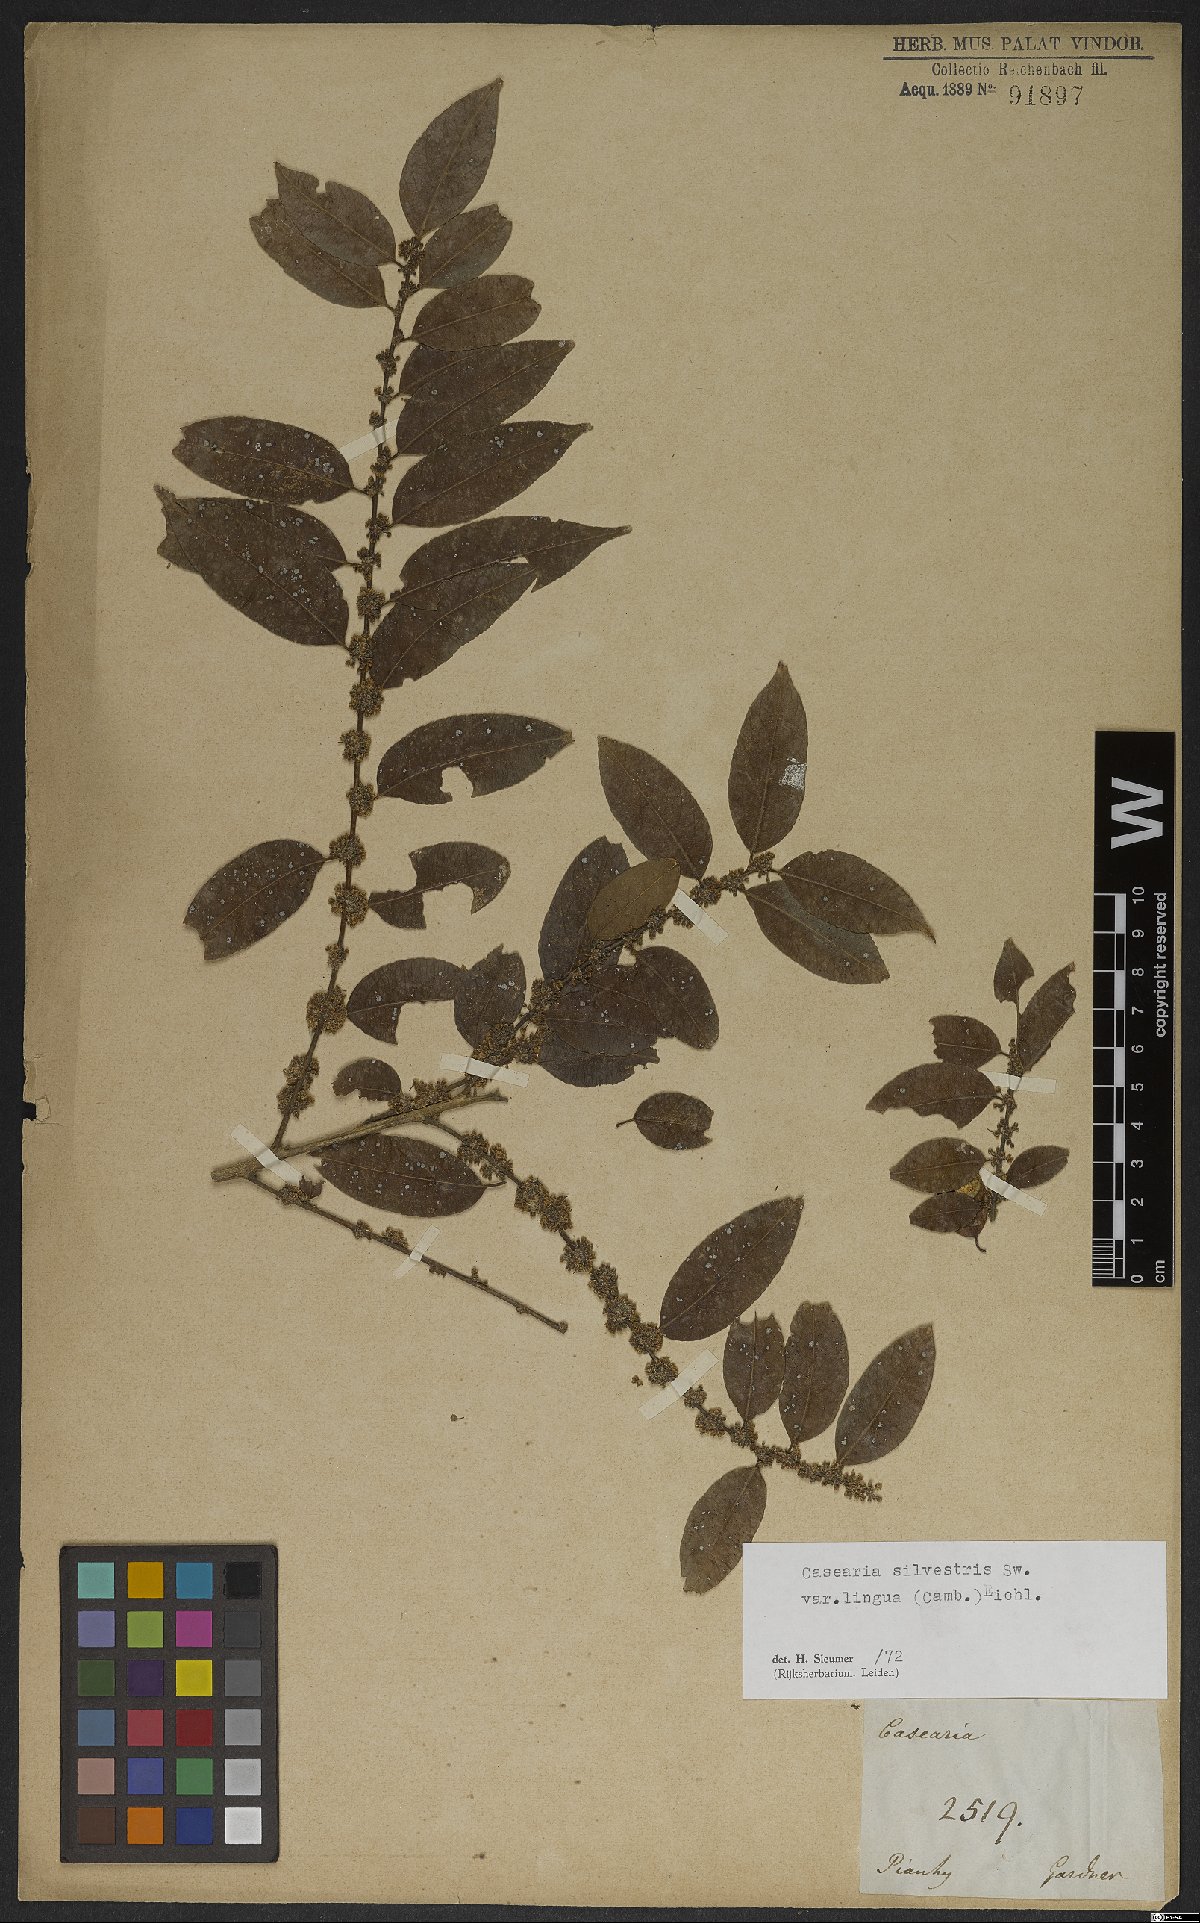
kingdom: Plantae
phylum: Tracheophyta
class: Magnoliopsida
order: Malpighiales
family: Salicaceae
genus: Casearia
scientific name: Casearia sylvestris
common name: Wild sage
